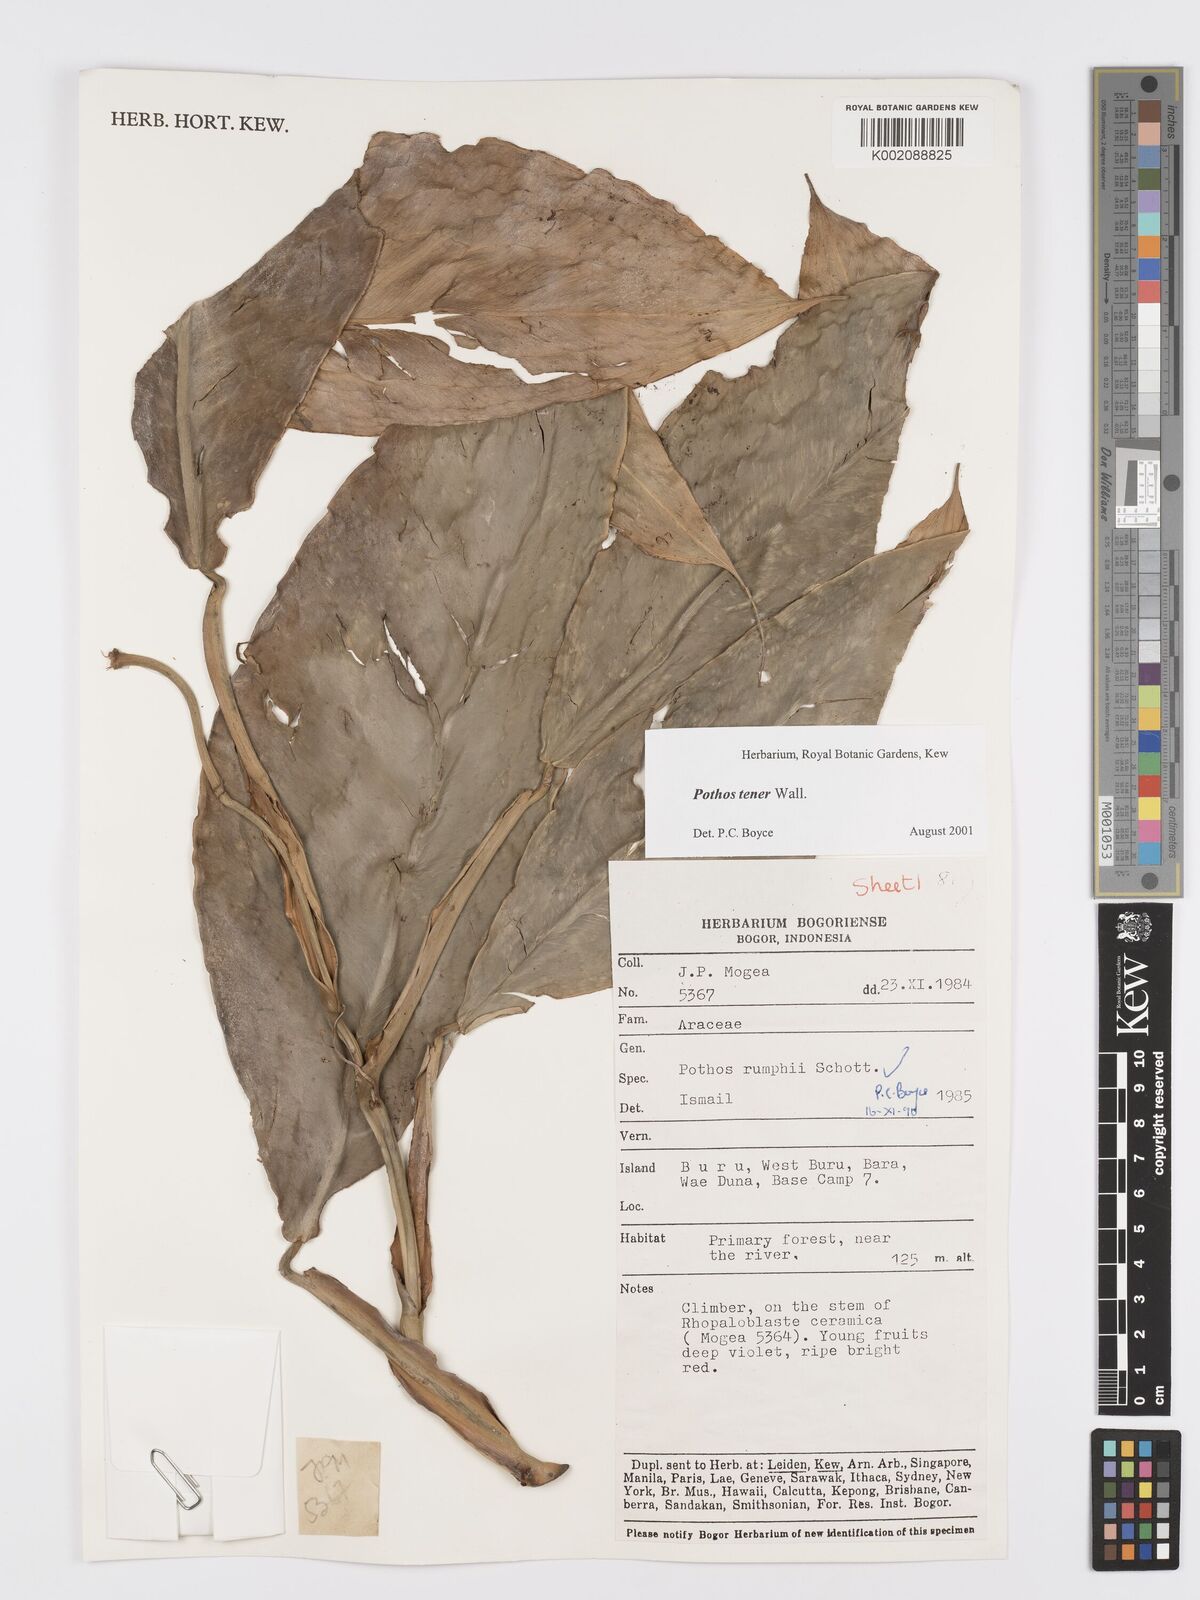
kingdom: Plantae
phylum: Tracheophyta
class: Liliopsida
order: Alismatales
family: Araceae
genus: Pothos
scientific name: Pothos tener
